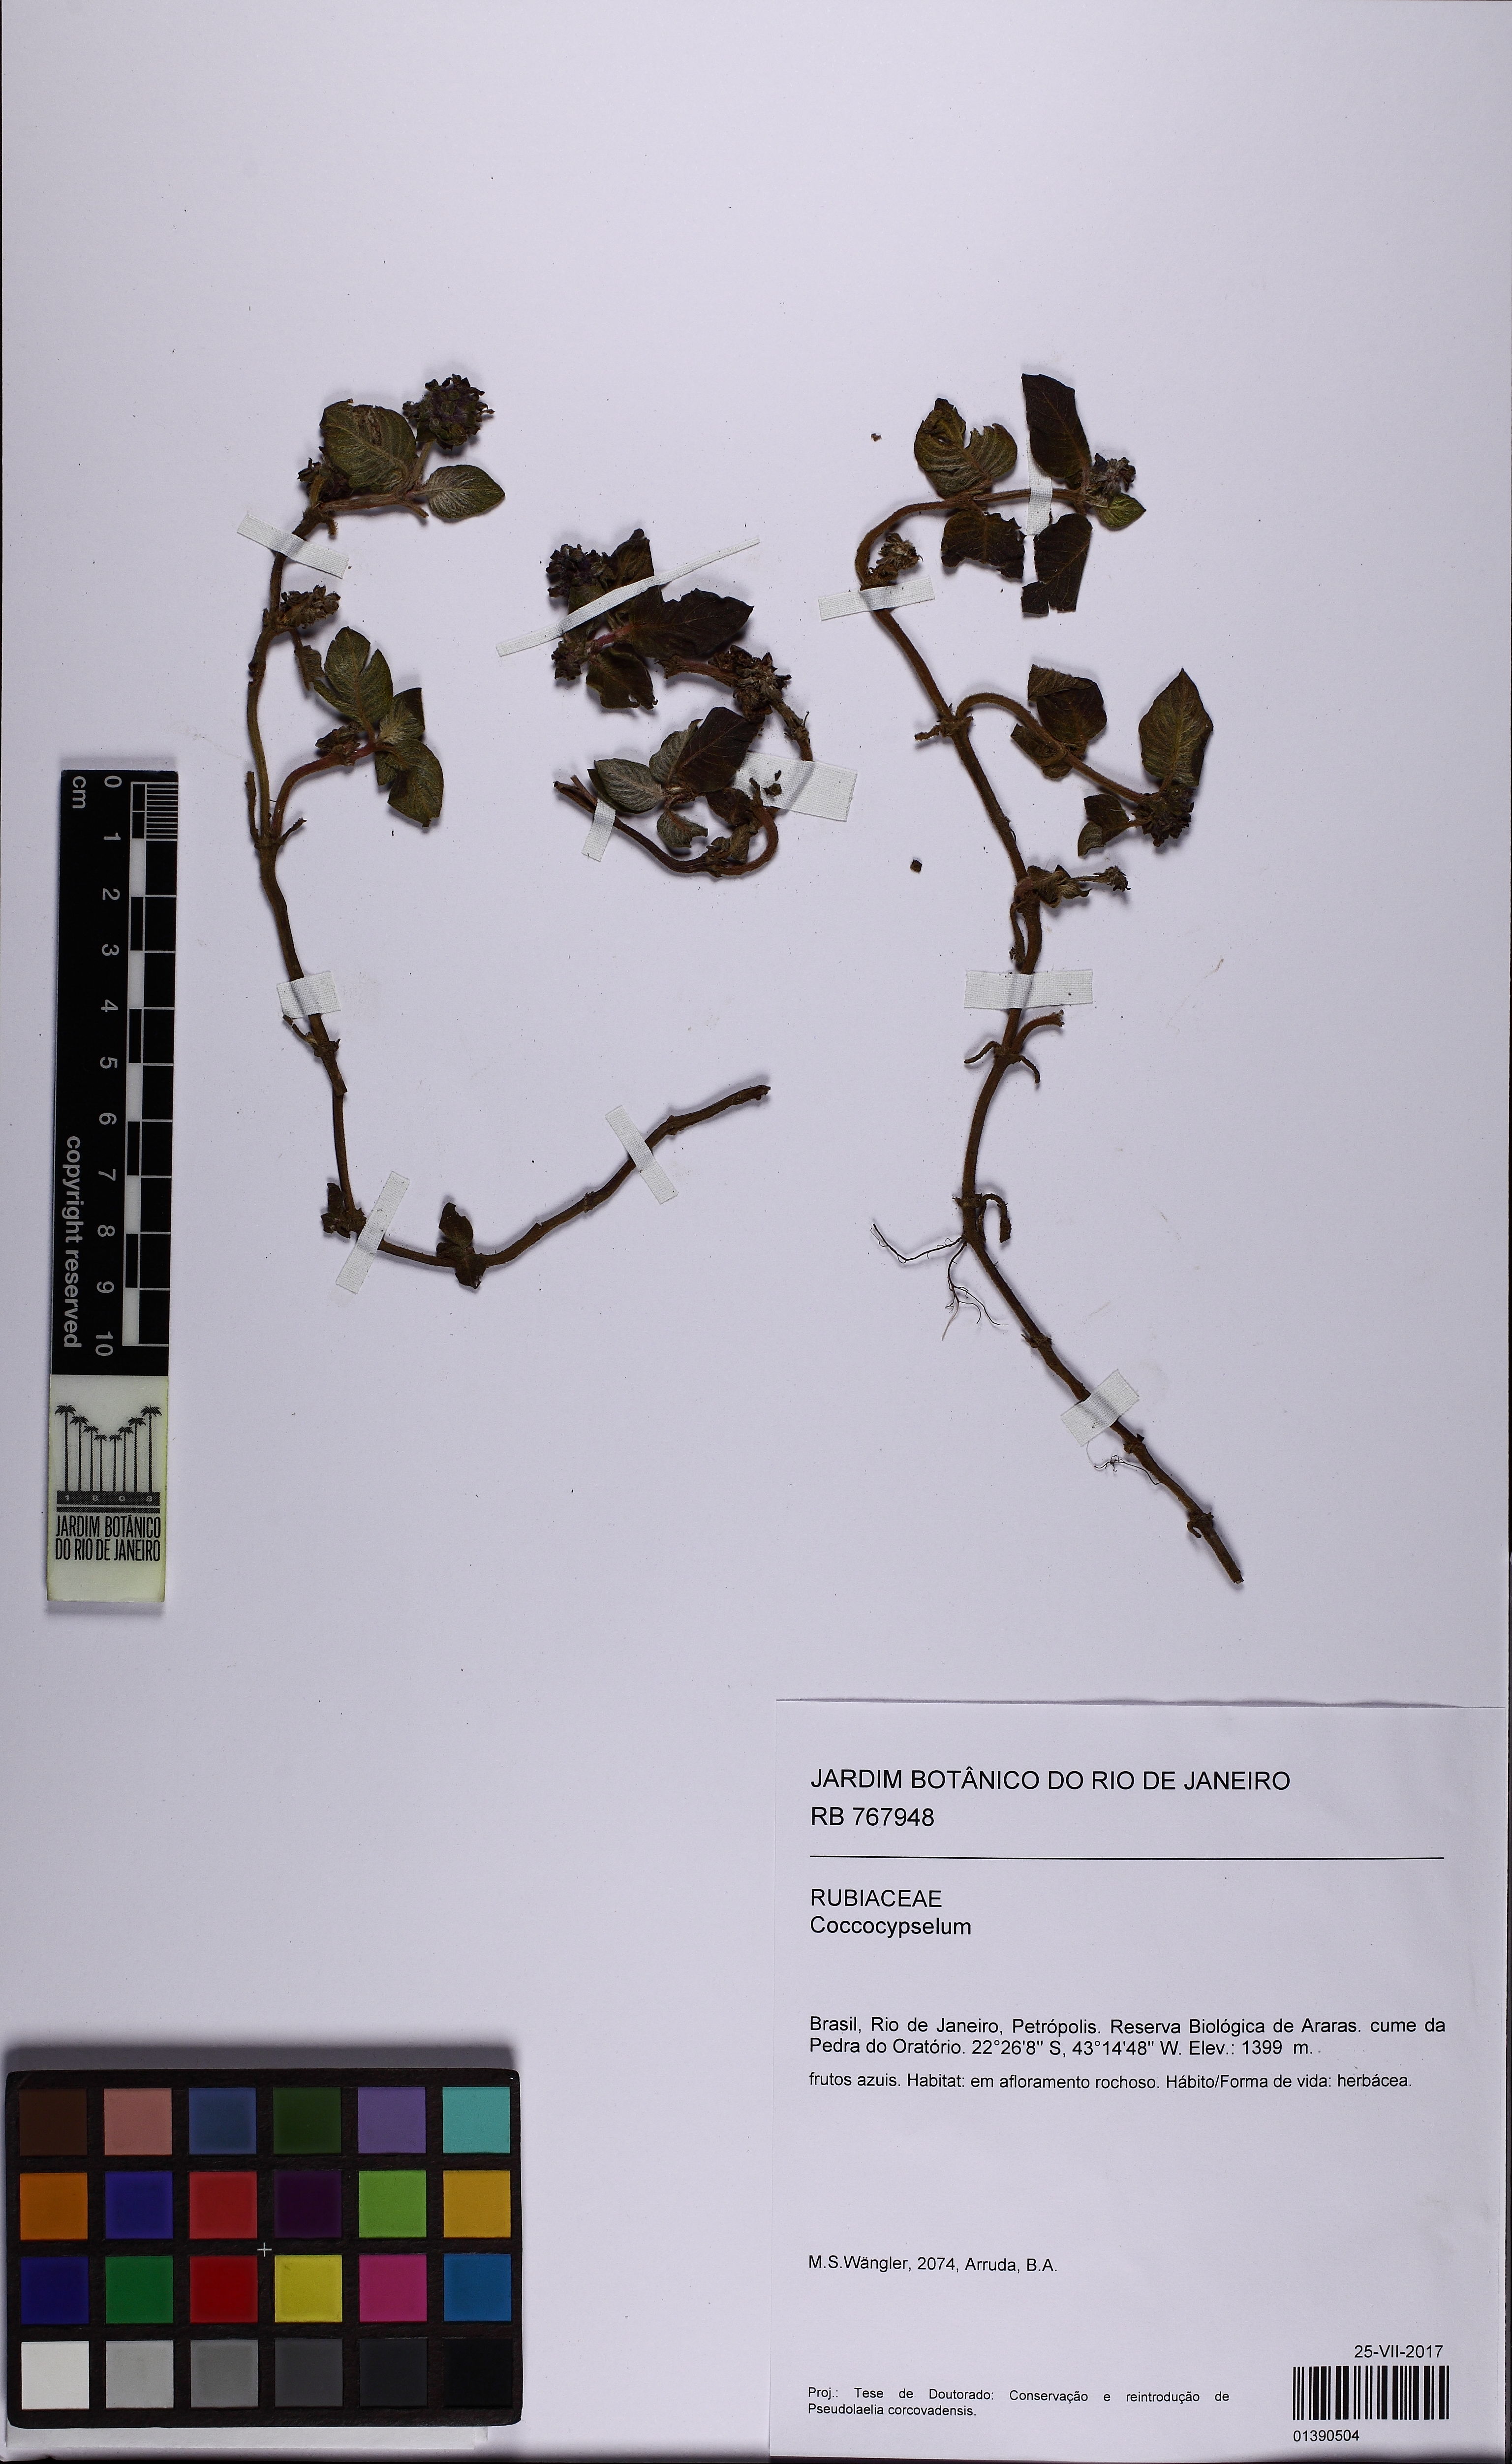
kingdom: Plantae
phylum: Tracheophyta
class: Magnoliopsida
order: Gentianales
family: Rubiaceae
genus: Coccocypselum
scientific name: Coccocypselum
